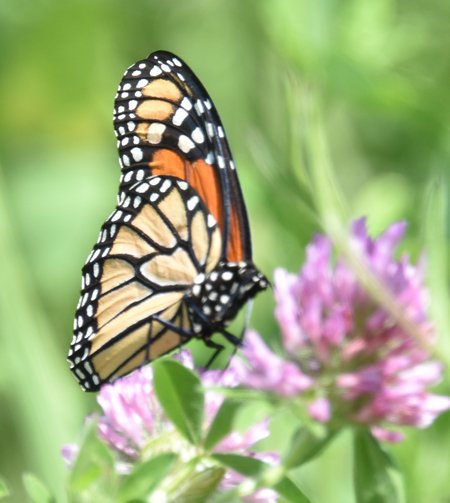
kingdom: Animalia
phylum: Arthropoda
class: Insecta
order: Lepidoptera
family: Nymphalidae
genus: Danaus
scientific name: Danaus plexippus
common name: Monarch
